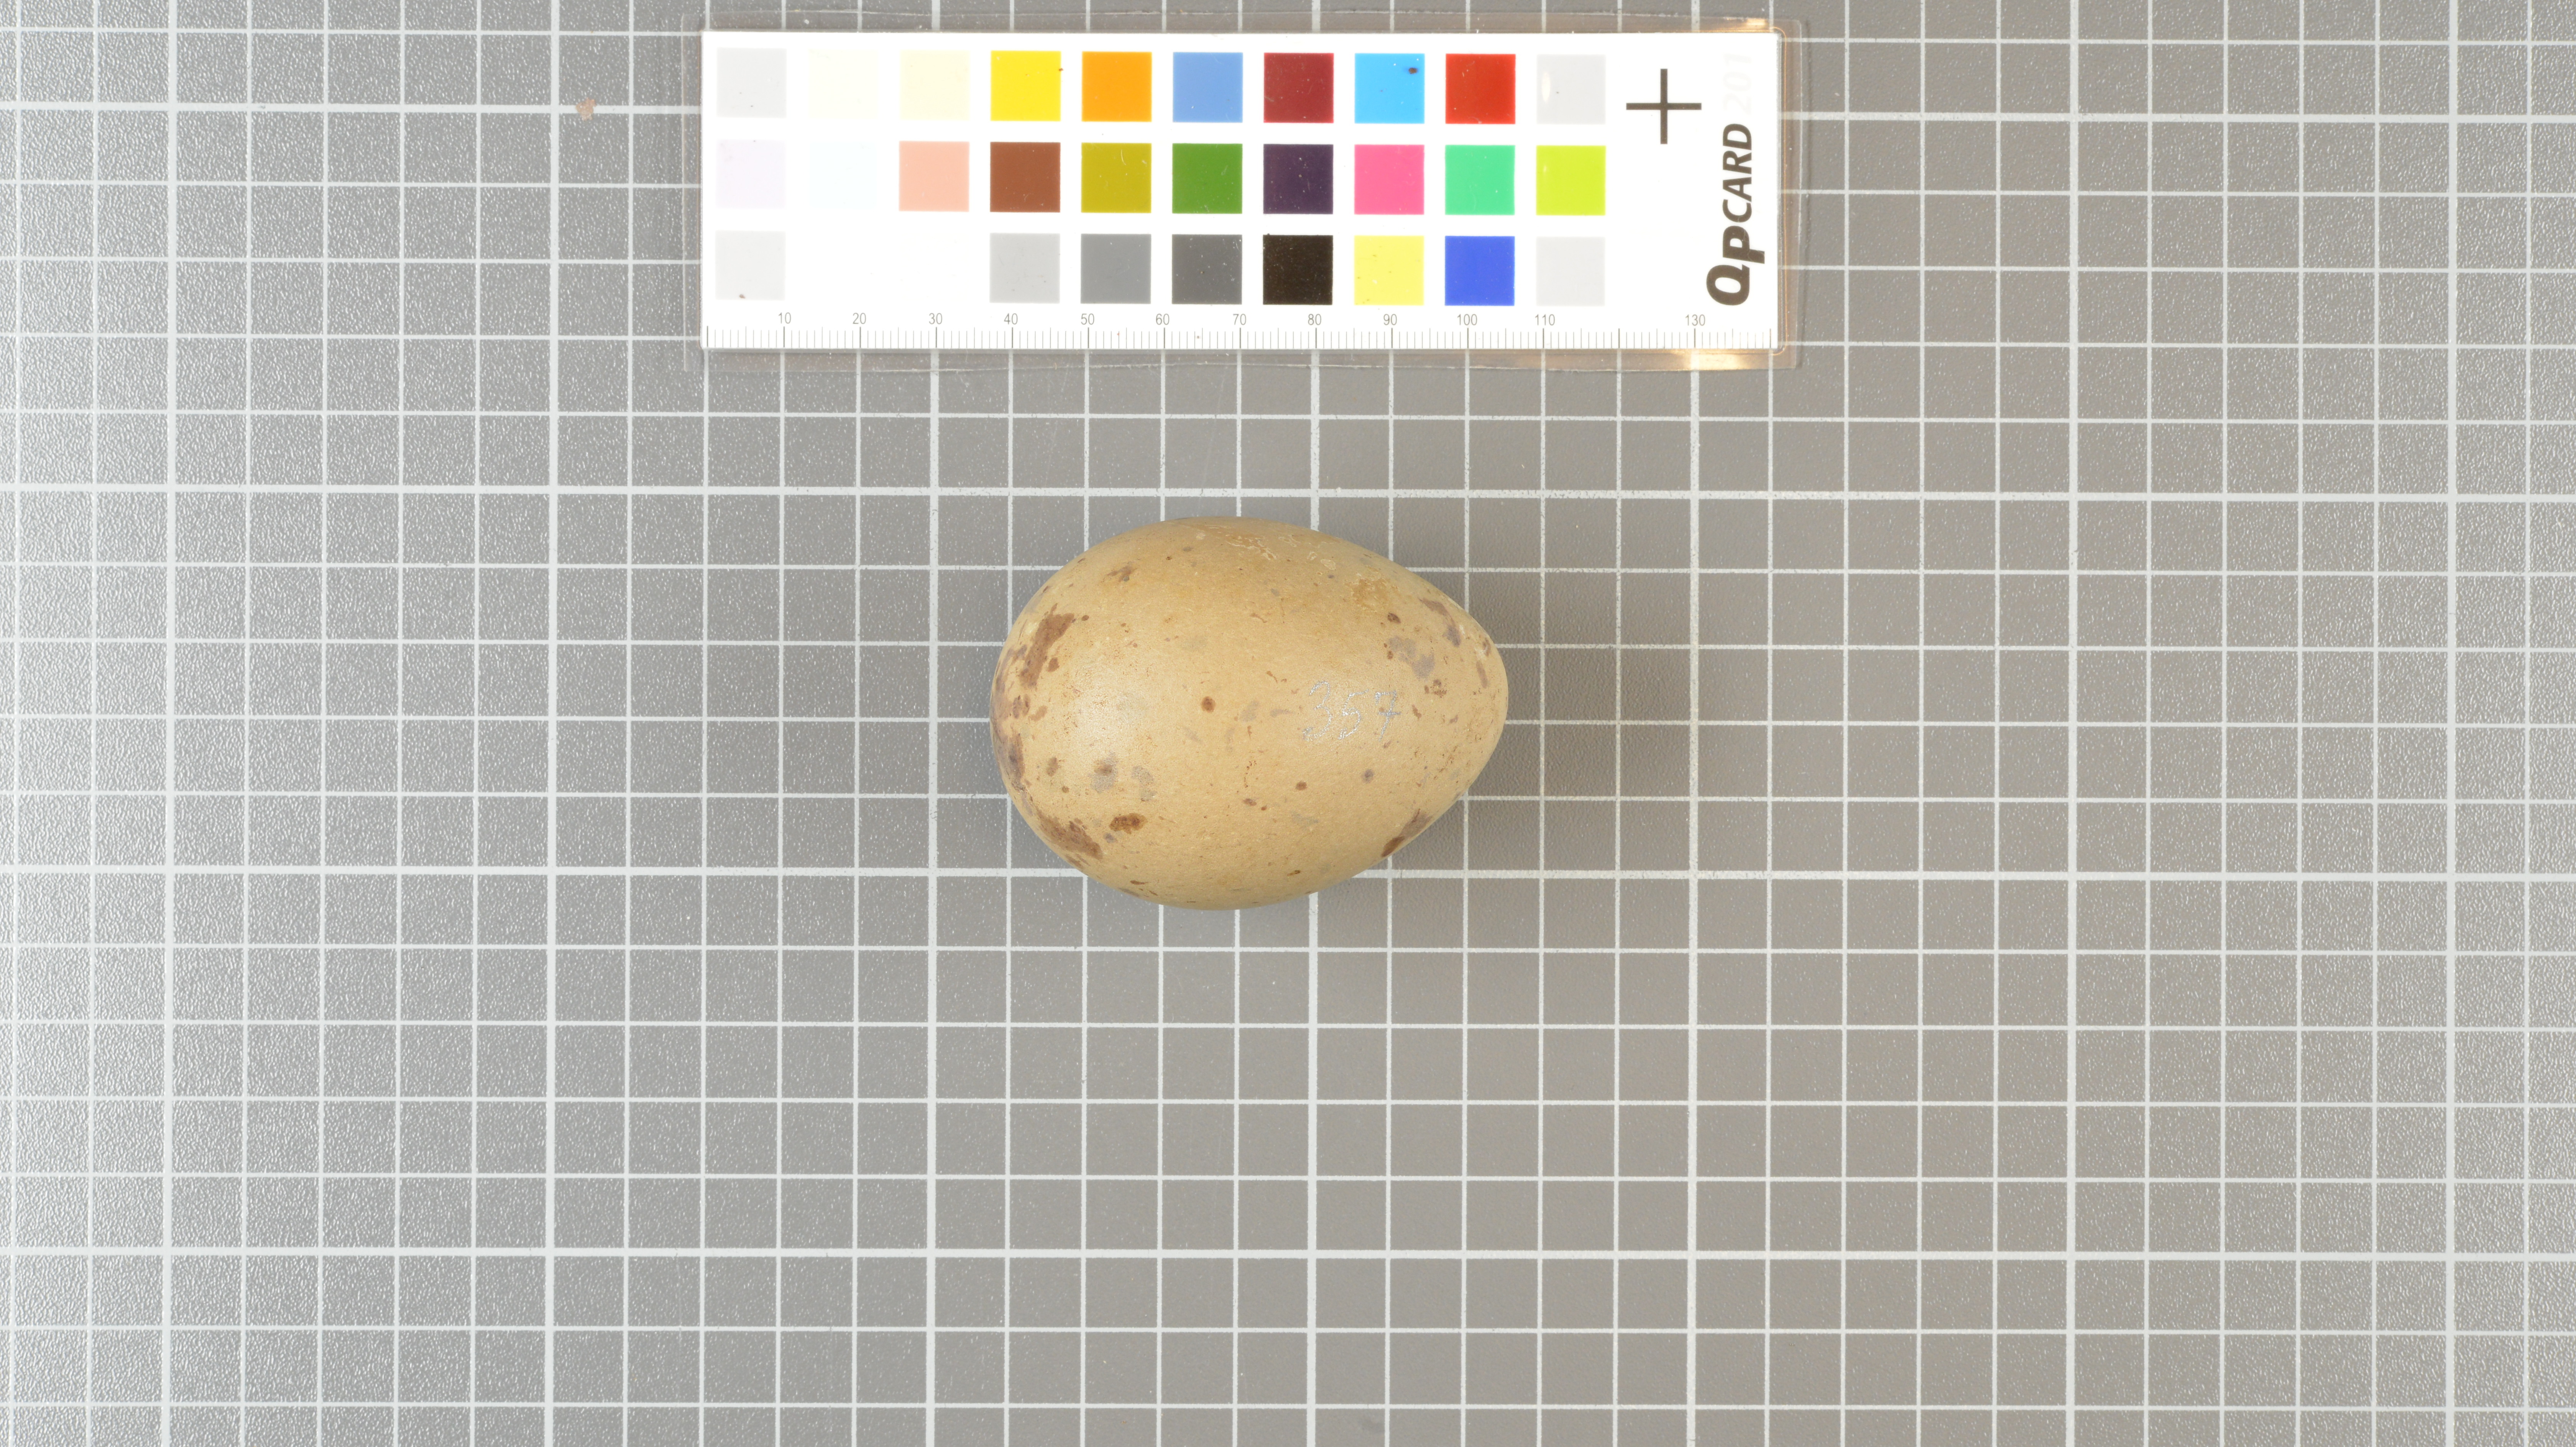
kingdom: Animalia
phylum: Chordata
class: Aves
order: Charadriiformes
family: Stercorariidae
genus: Stercorarius
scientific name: Stercorarius antarcticus
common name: Brown skua
